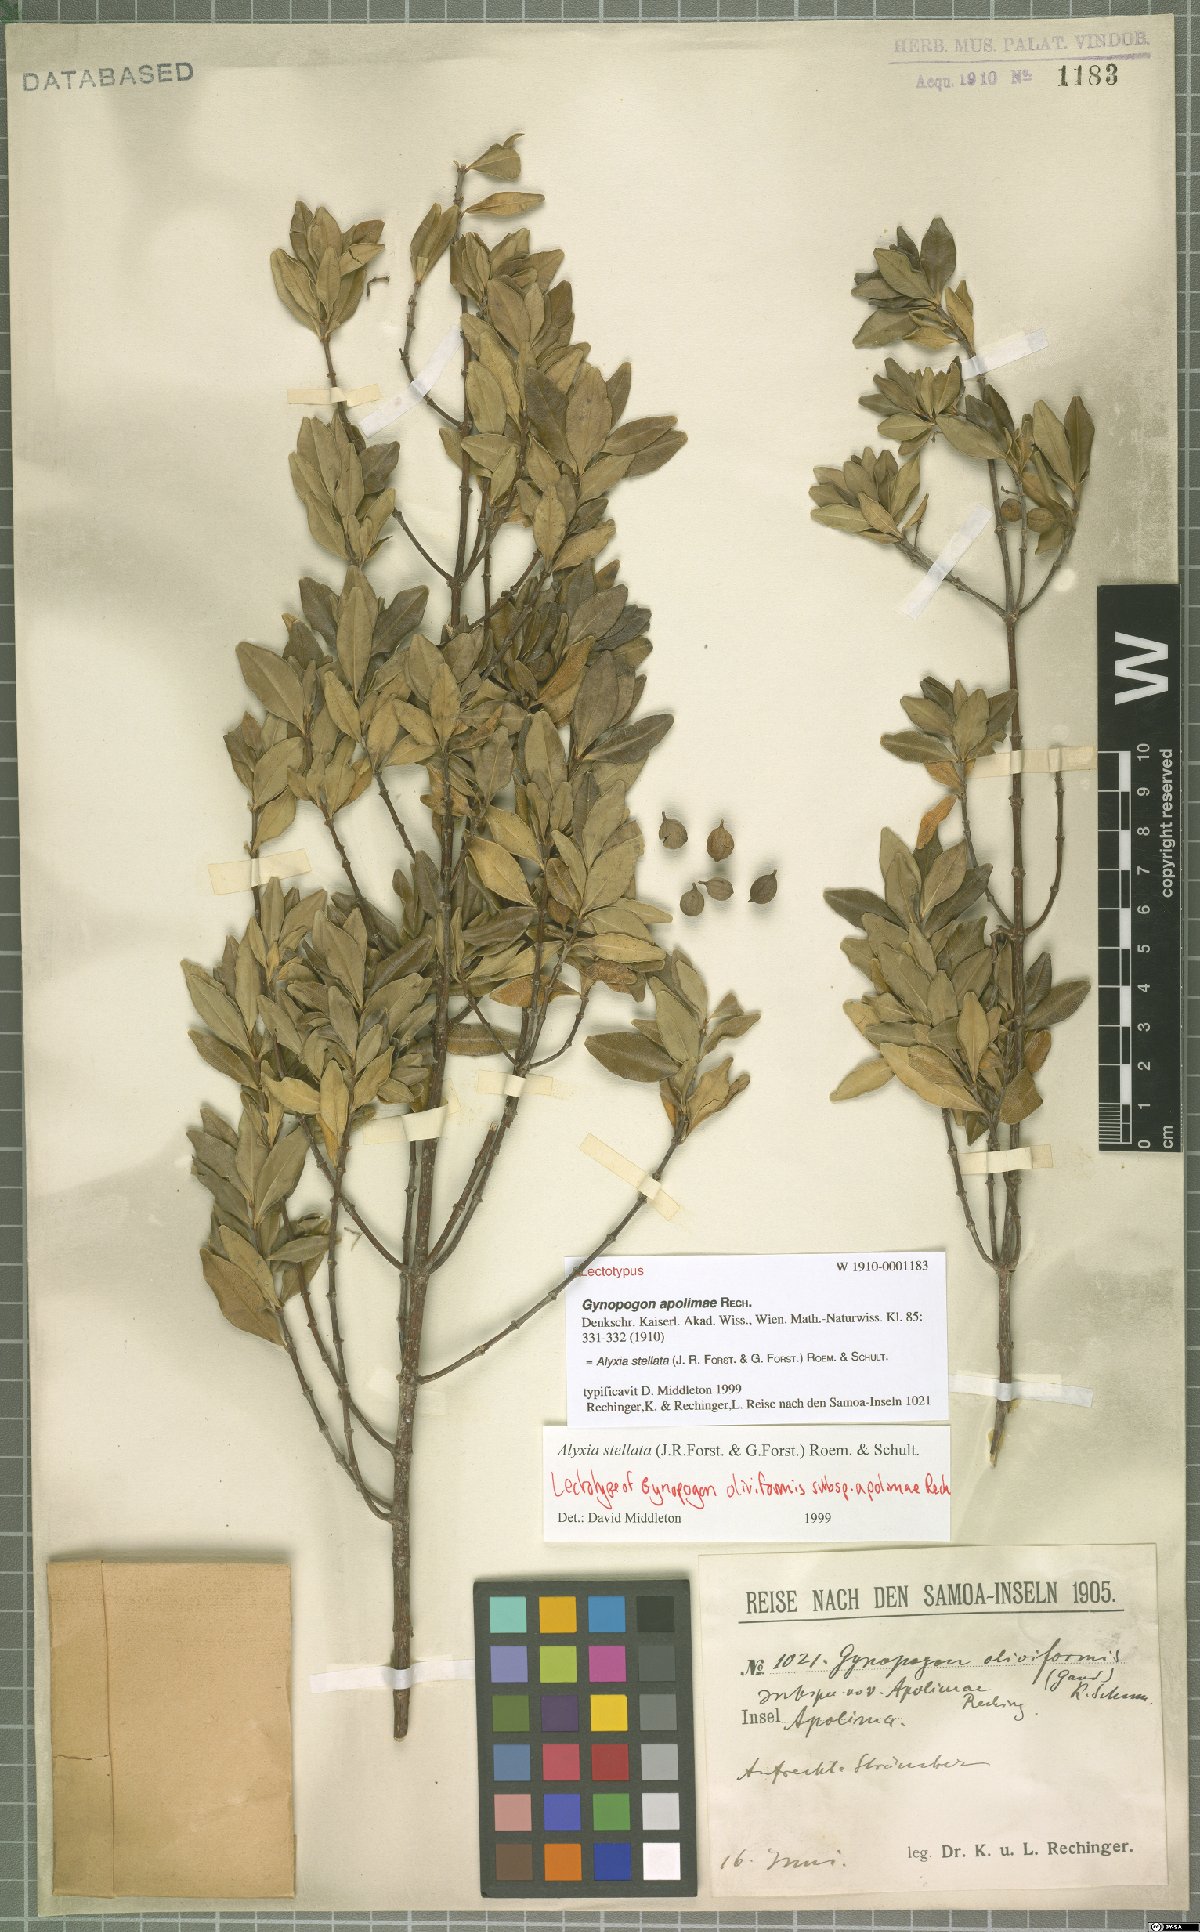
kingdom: Plantae
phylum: Tracheophyta
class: Magnoliopsida
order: Gentianales
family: Apocynaceae
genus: Alyxia
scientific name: Alyxia stellata
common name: Maile
